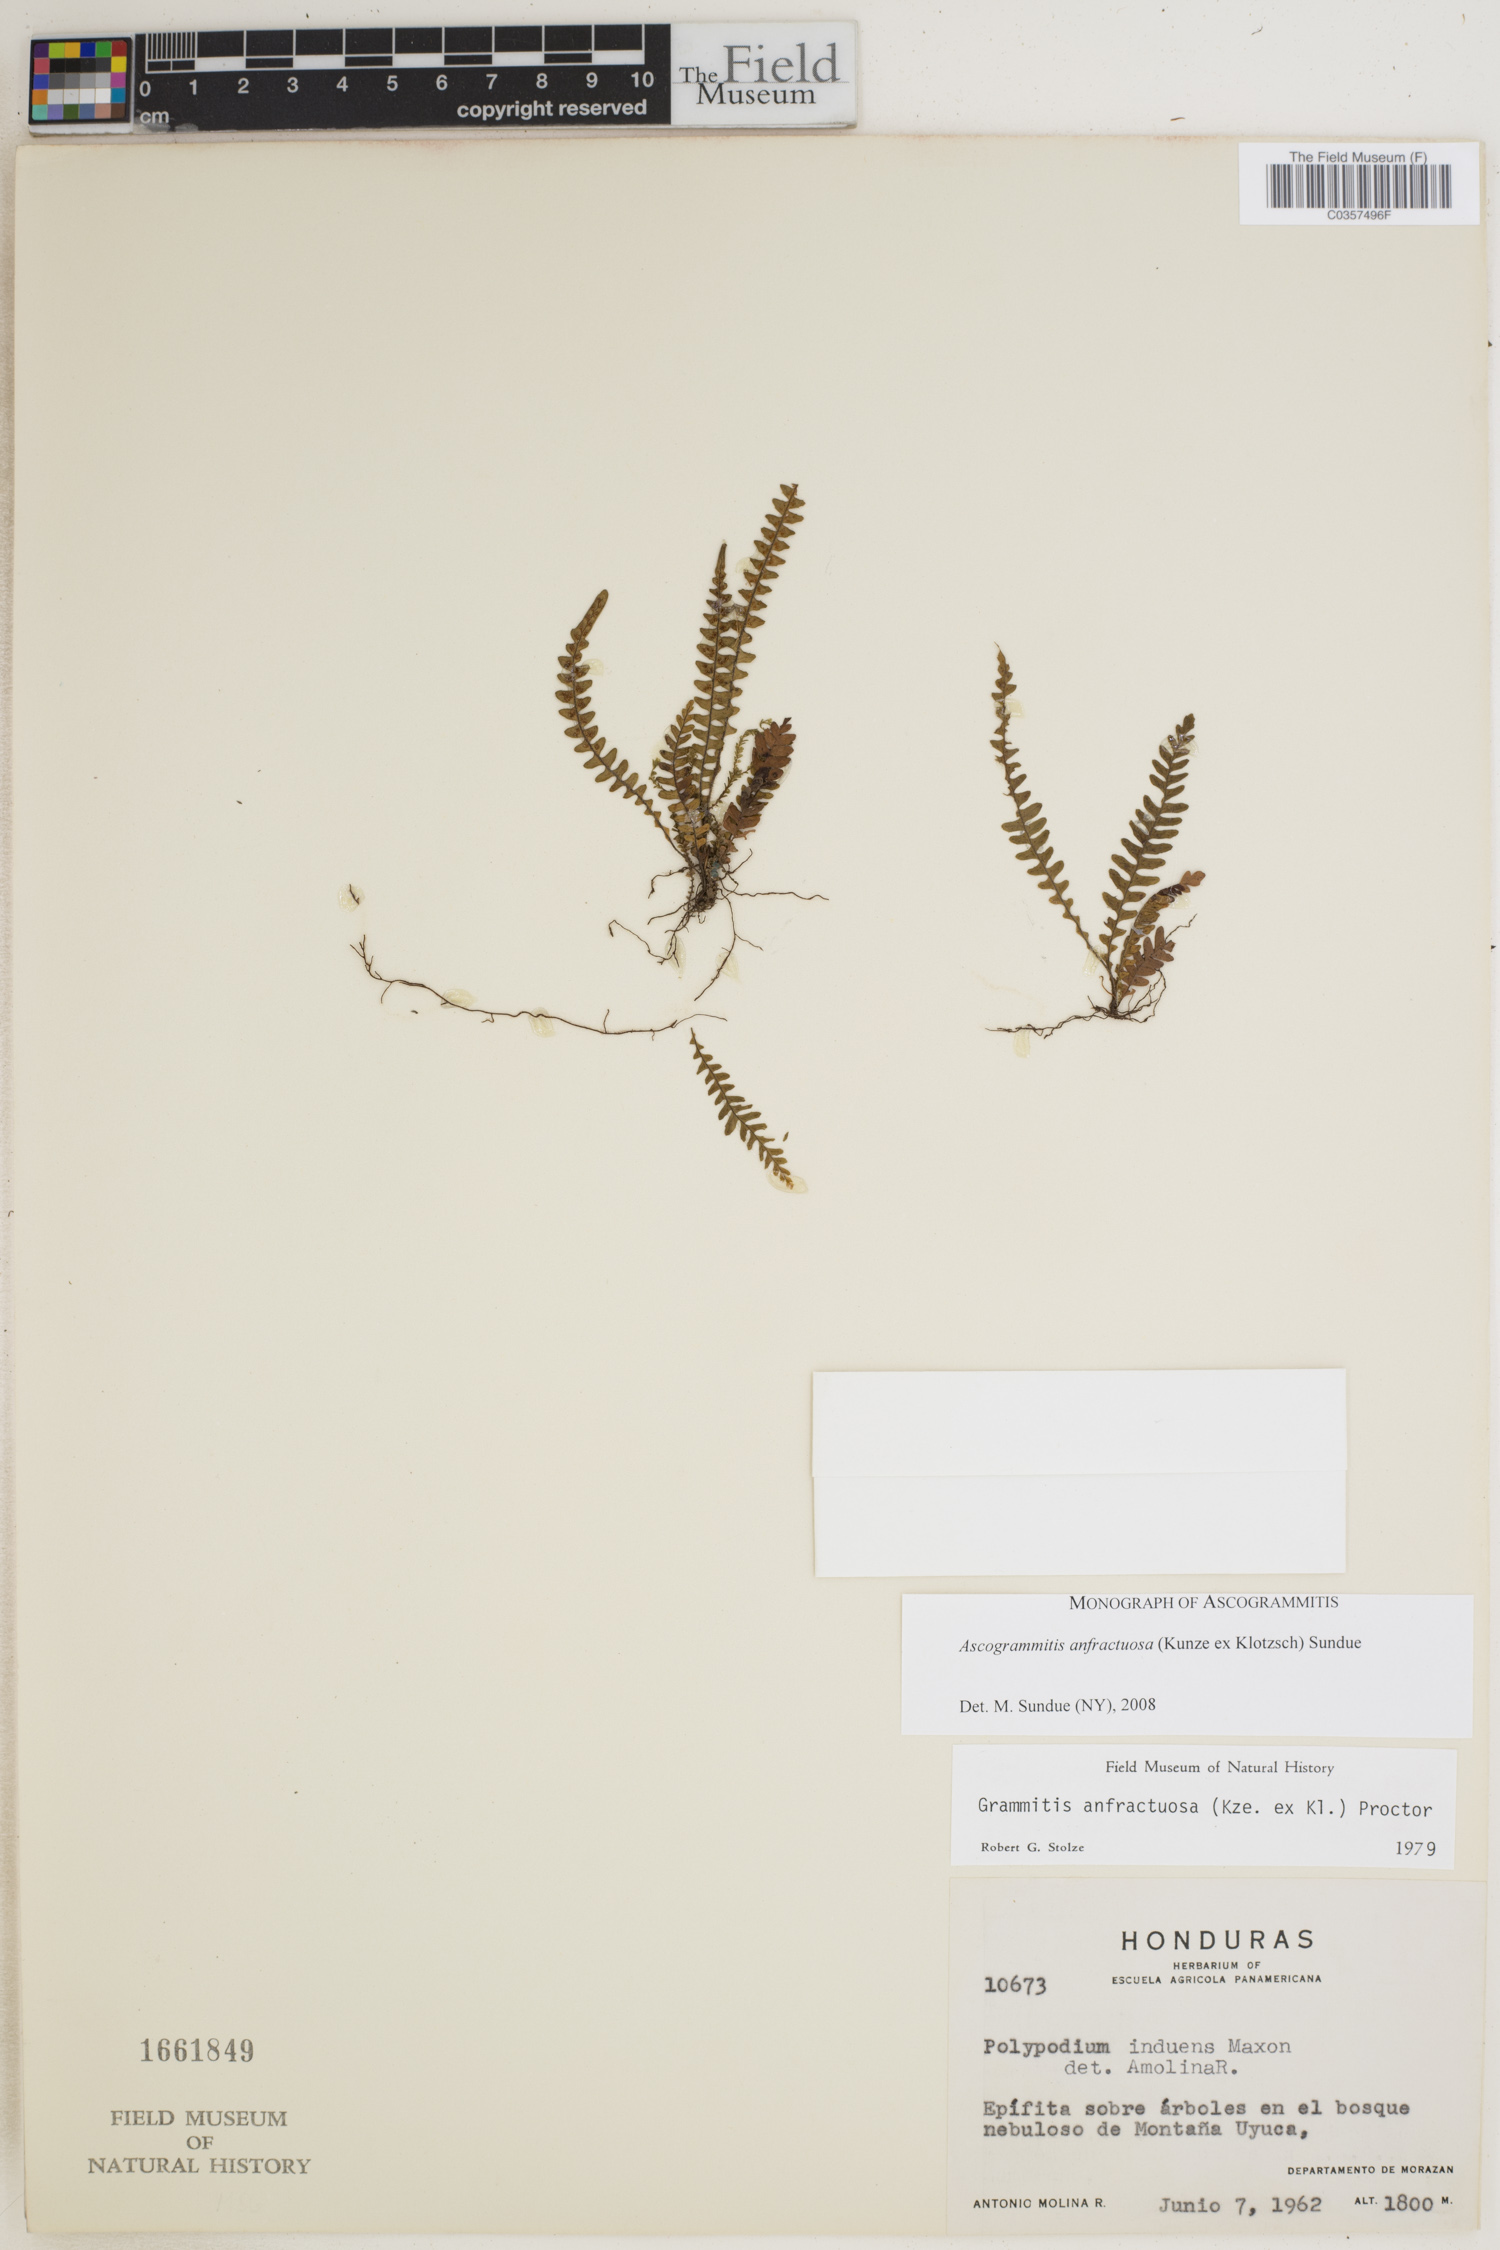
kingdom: Plantae
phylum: Tracheophyta
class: Polypodiopsida
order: Polypodiales
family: Polypodiaceae
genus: Ascogrammitis
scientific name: Ascogrammitis anfractuosa
